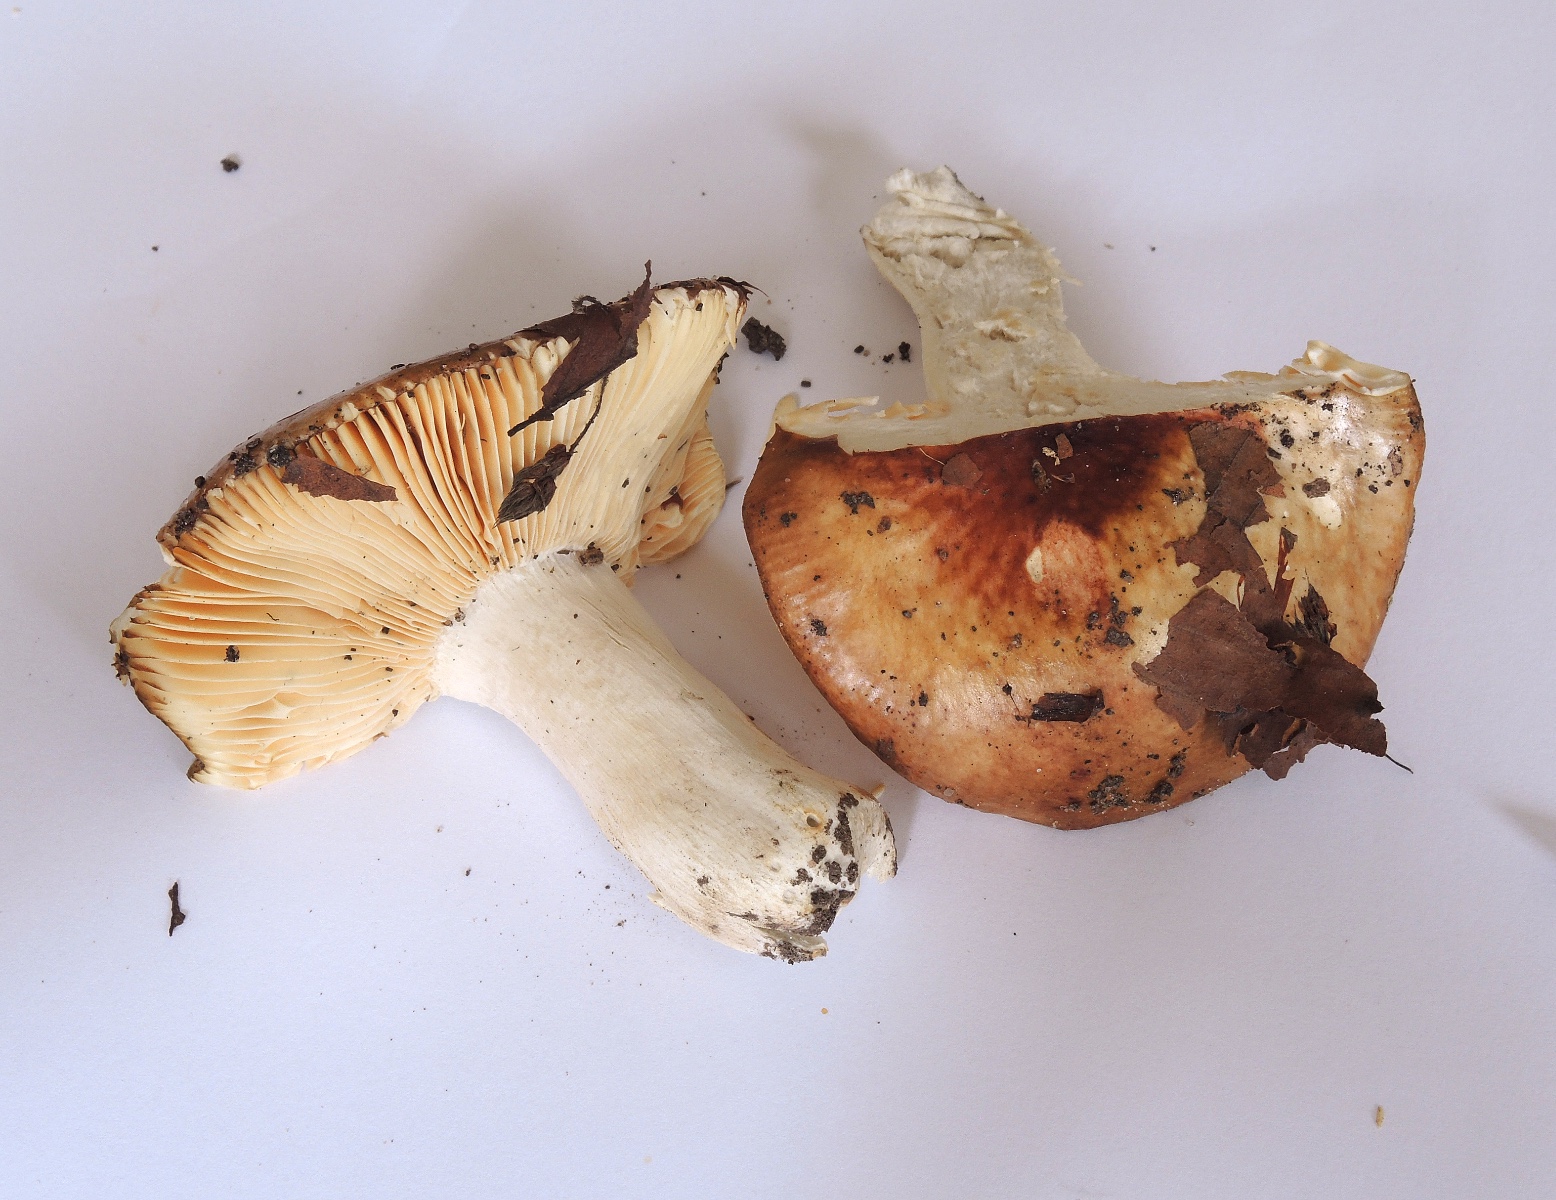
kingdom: Fungi
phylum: Basidiomycota
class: Agaricomycetes
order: Russulales
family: Russulaceae
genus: Russula
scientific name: Russula laeta
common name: orangerosa skørhat
